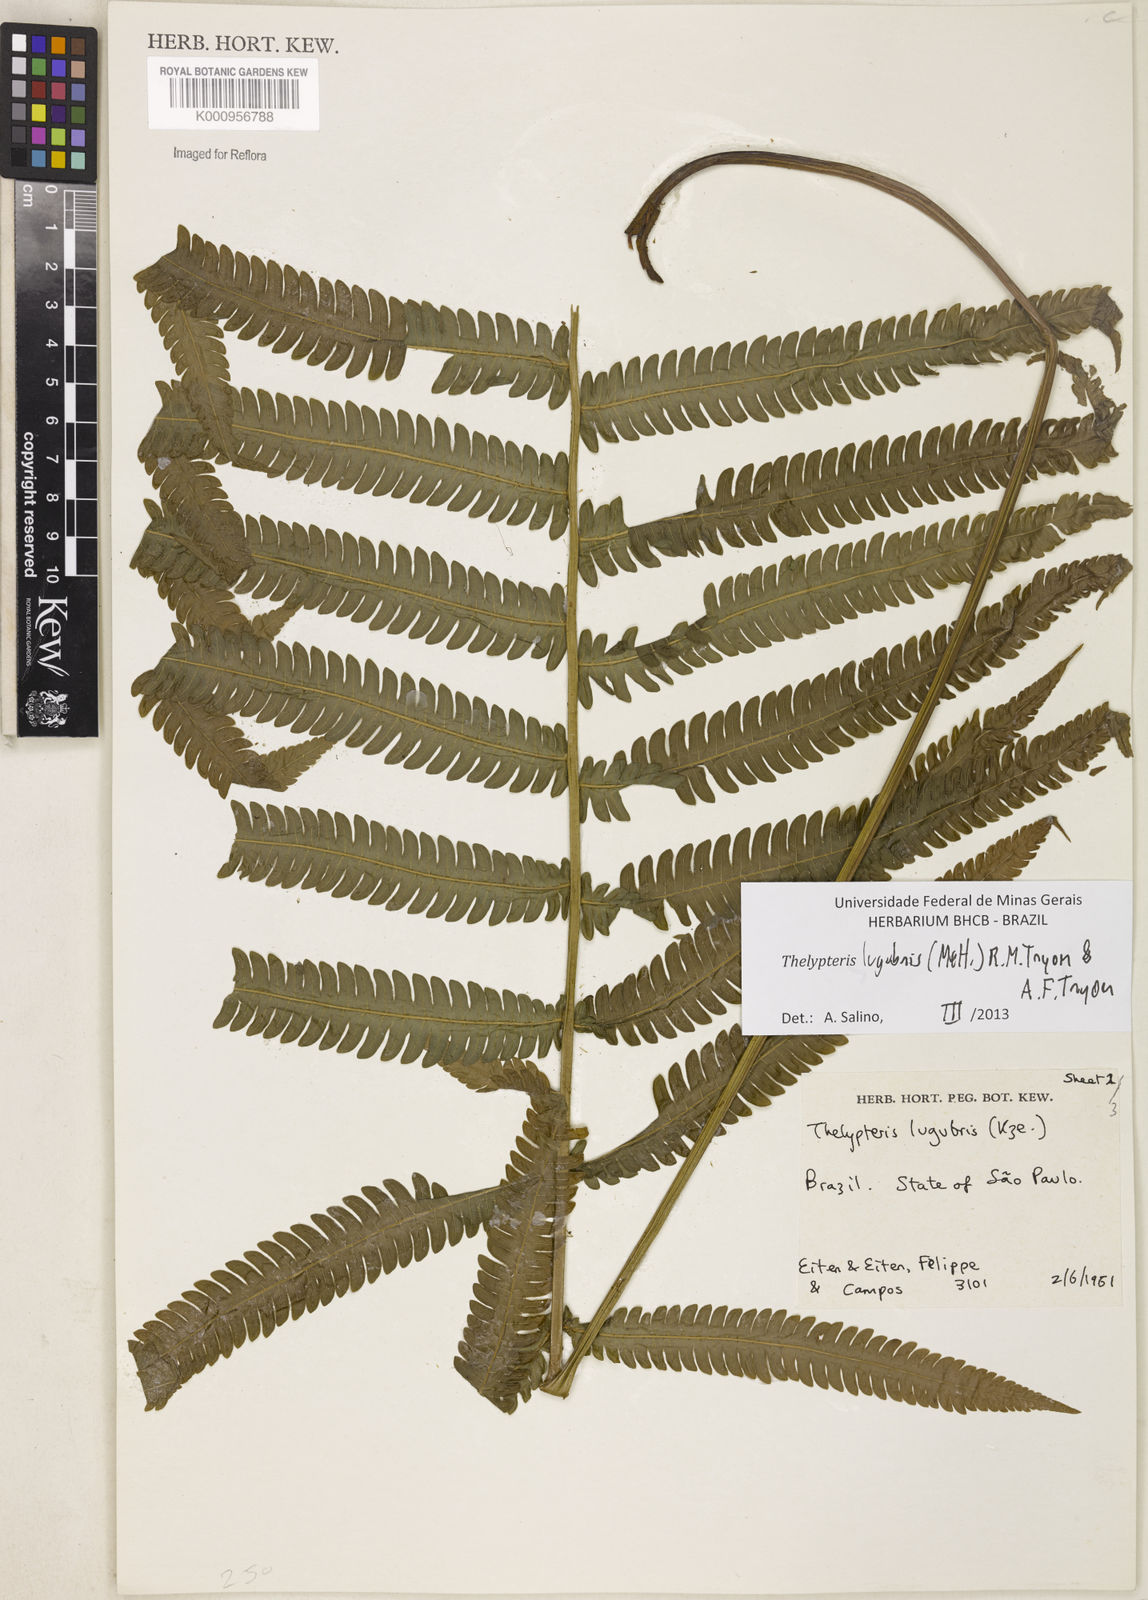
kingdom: Plantae
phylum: Tracheophyta
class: Polypodiopsida
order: Polypodiales
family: Thelypteridaceae
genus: Goniopteris
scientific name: Goniopteris lugubris
